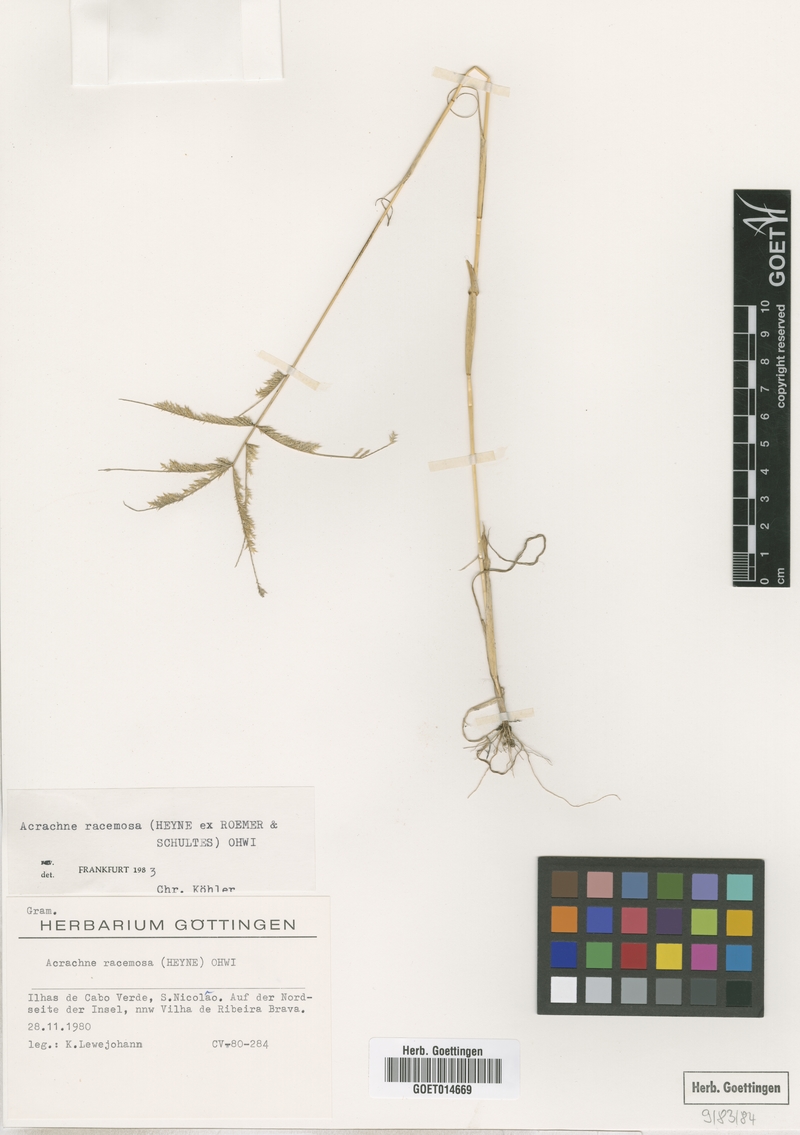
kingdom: Plantae
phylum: Tracheophyta
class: Liliopsida
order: Poales
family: Poaceae
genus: Acrachne
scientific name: Acrachne racemosa
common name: Goosegrass
